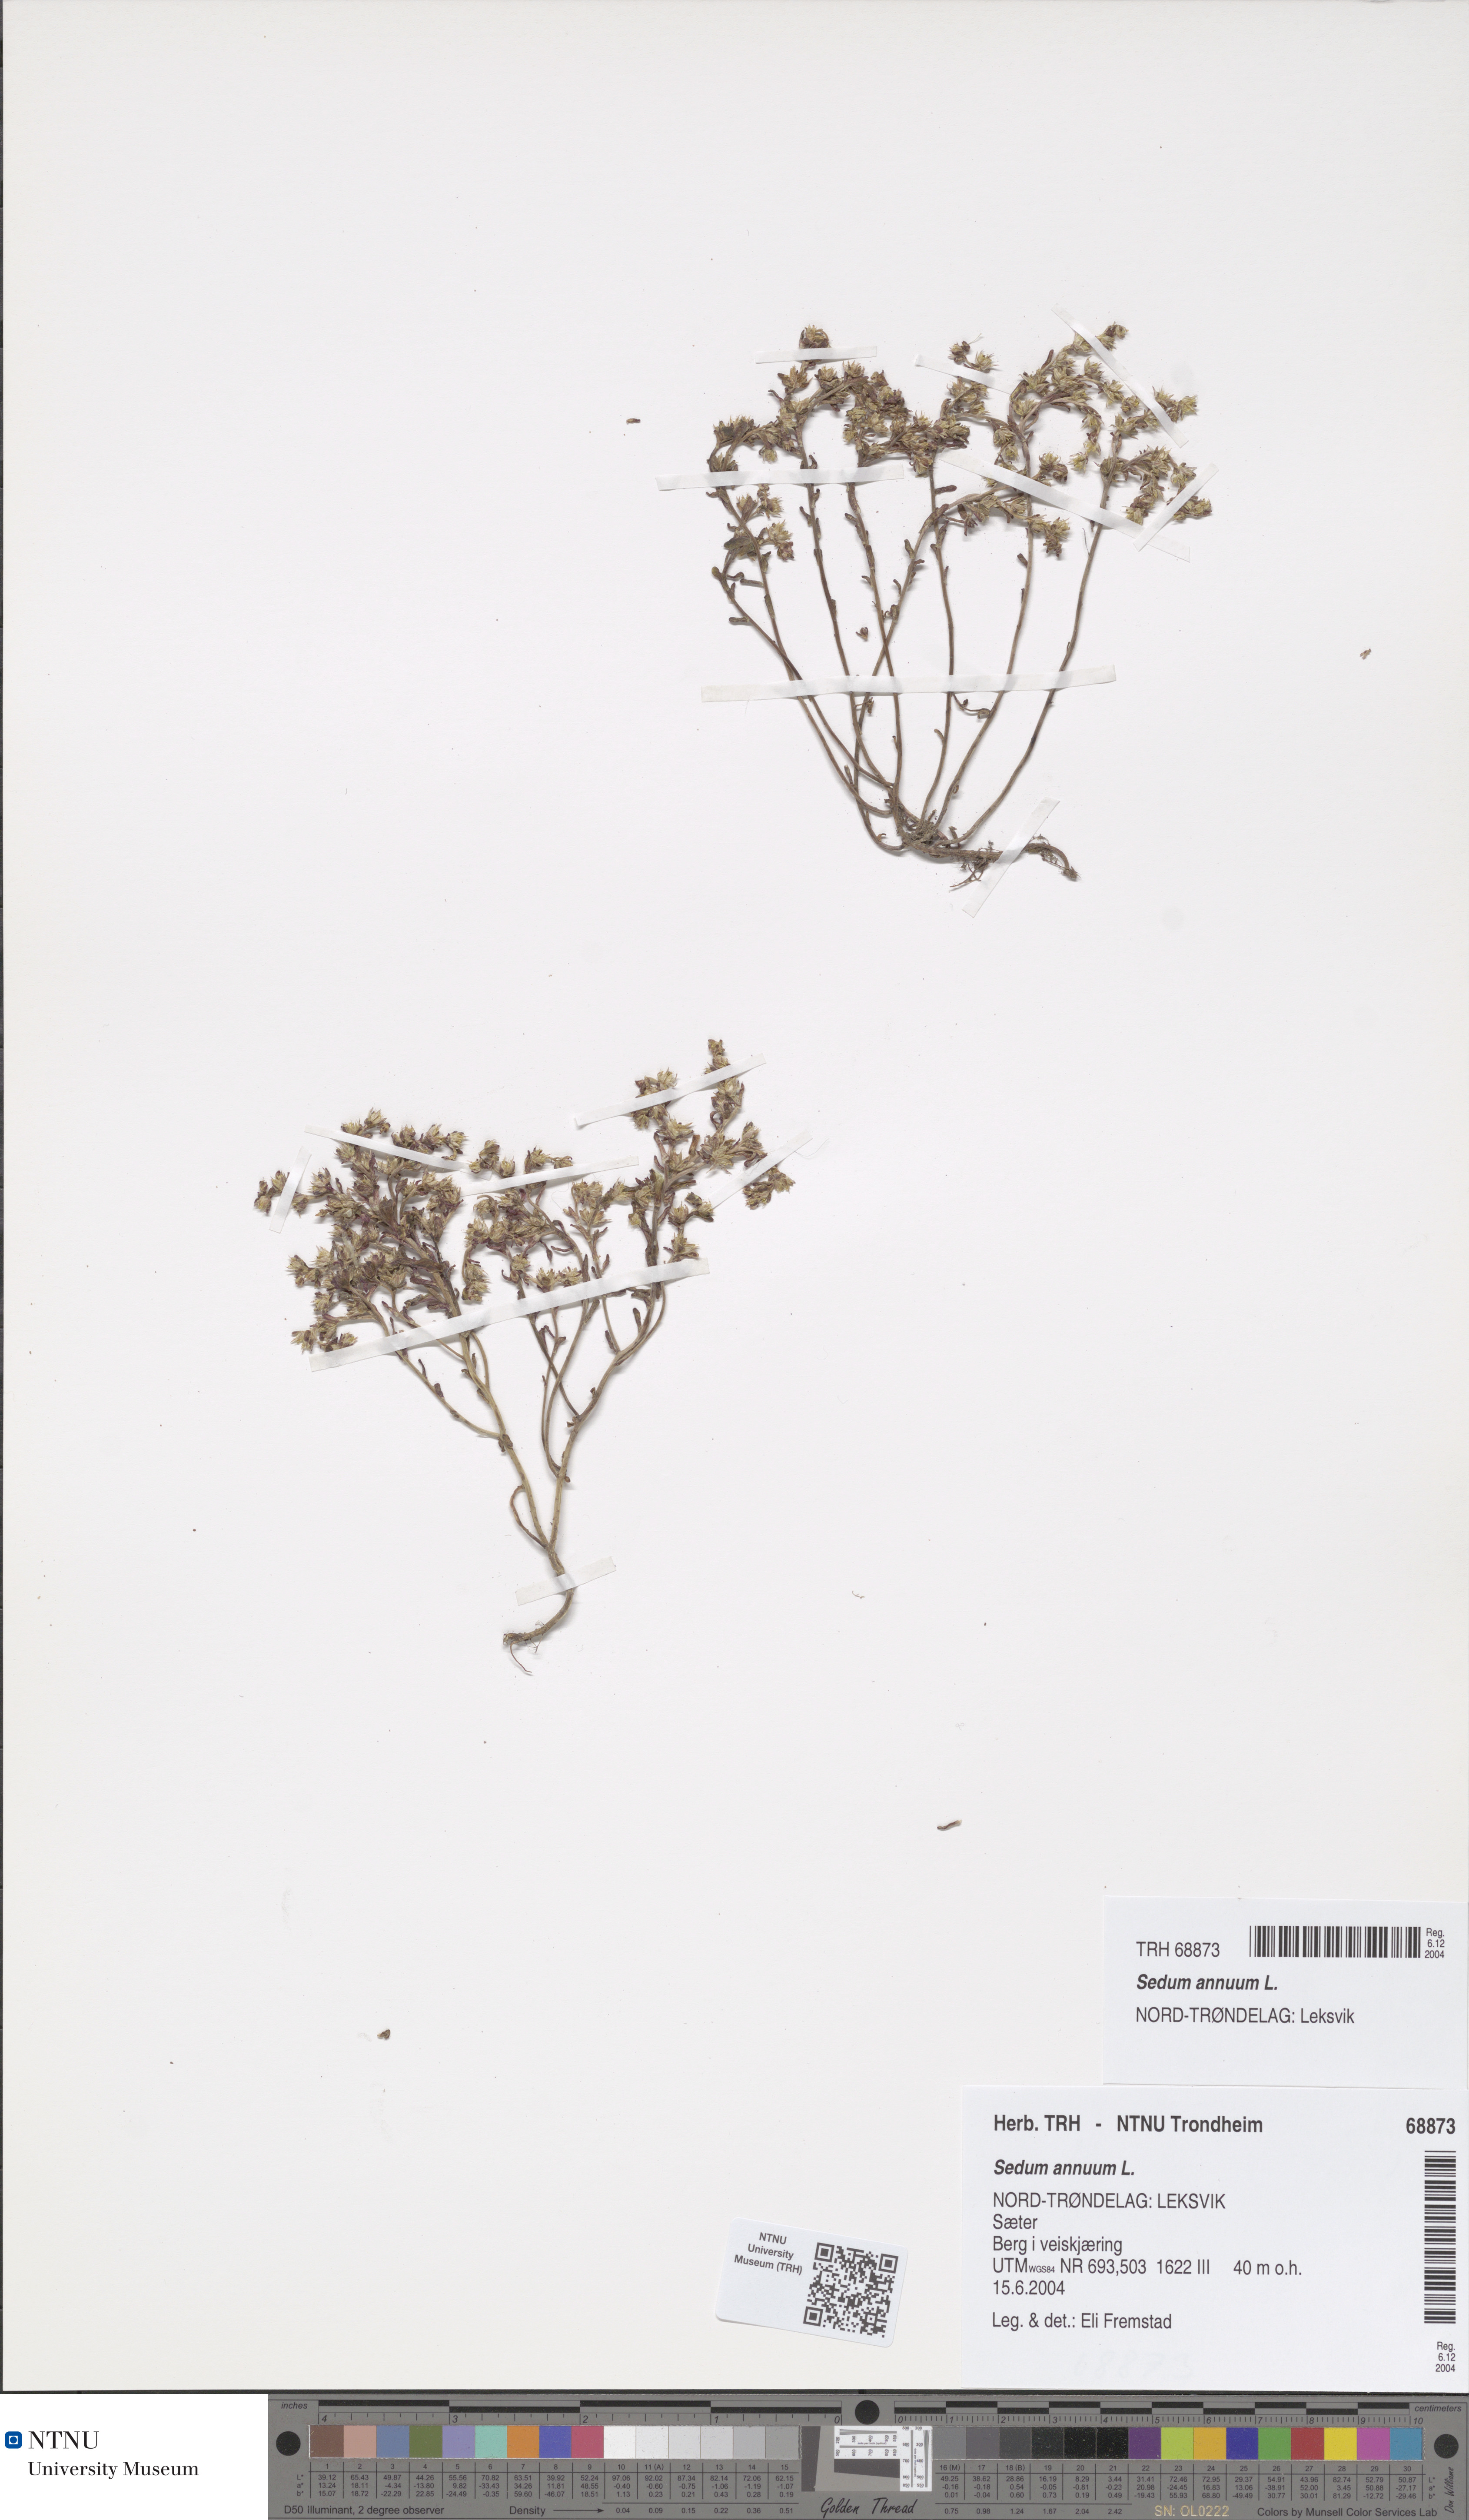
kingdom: Plantae
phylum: Tracheophyta
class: Magnoliopsida
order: Saxifragales
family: Crassulaceae
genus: Sedum
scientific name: Sedum annuum
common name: Annual stonecrop
